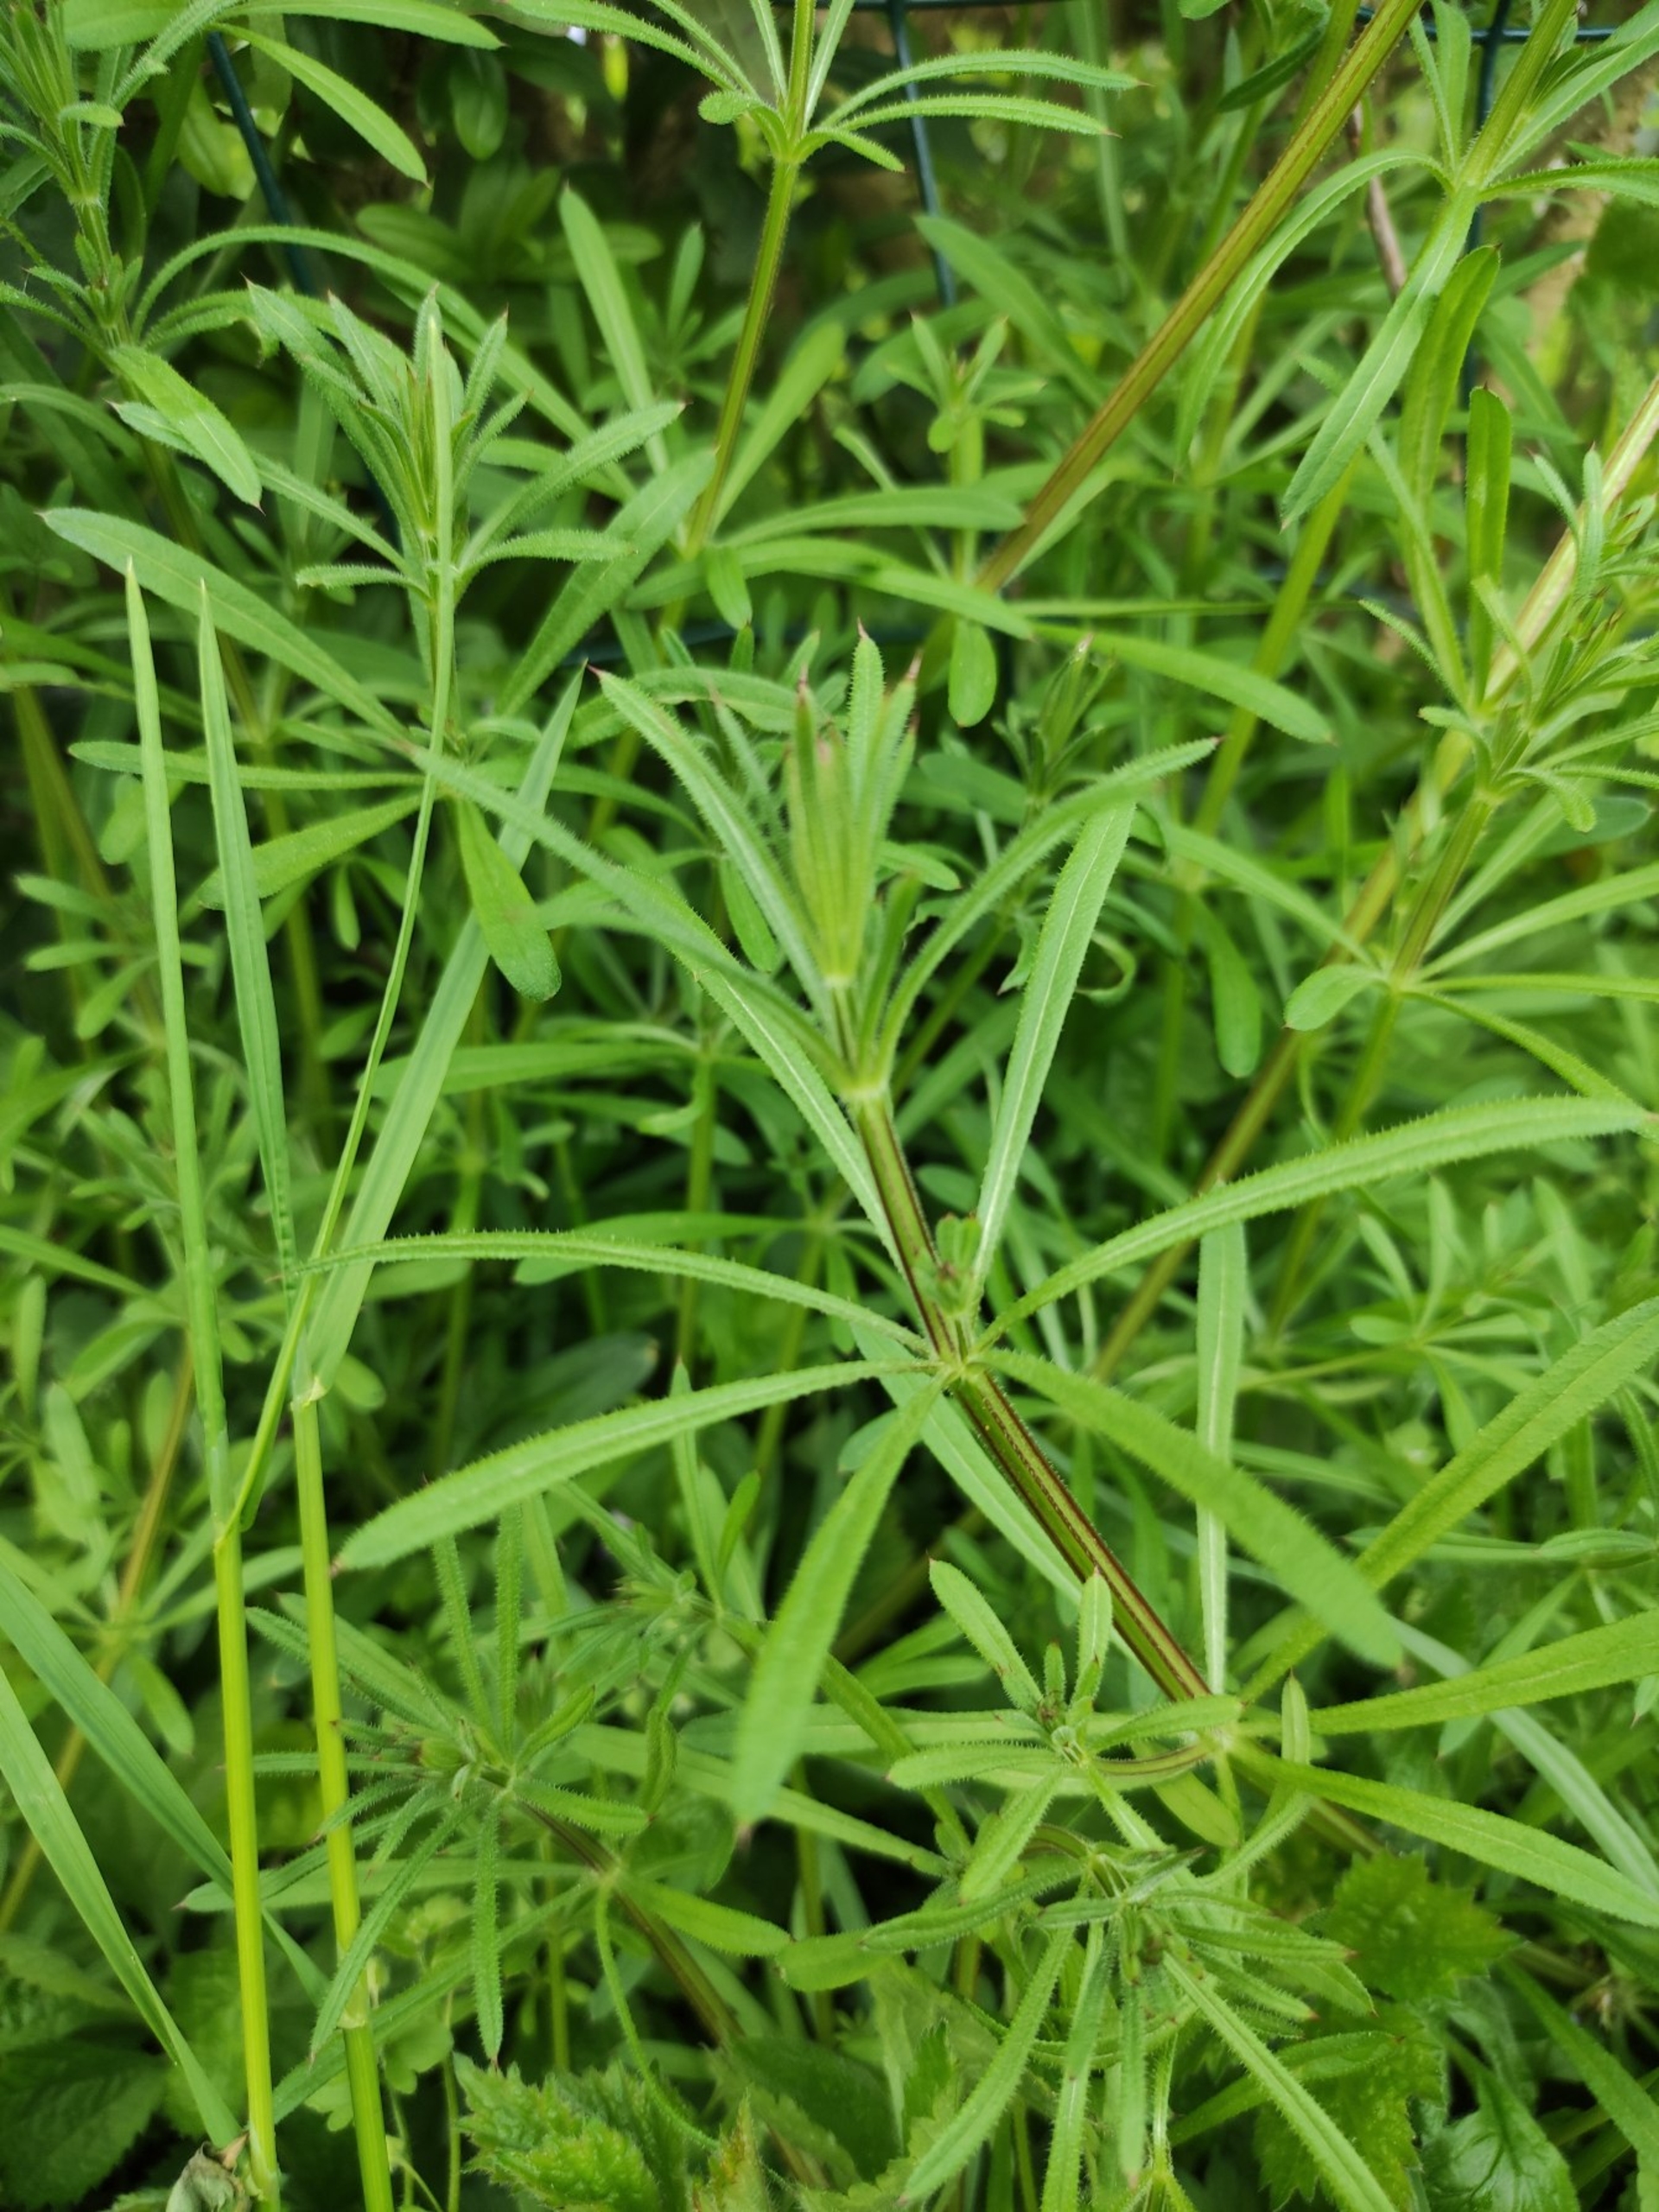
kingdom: Plantae
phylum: Tracheophyta
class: Magnoliopsida
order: Gentianales
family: Rubiaceae
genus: Galium
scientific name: Galium aparine
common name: Burre-snerre
